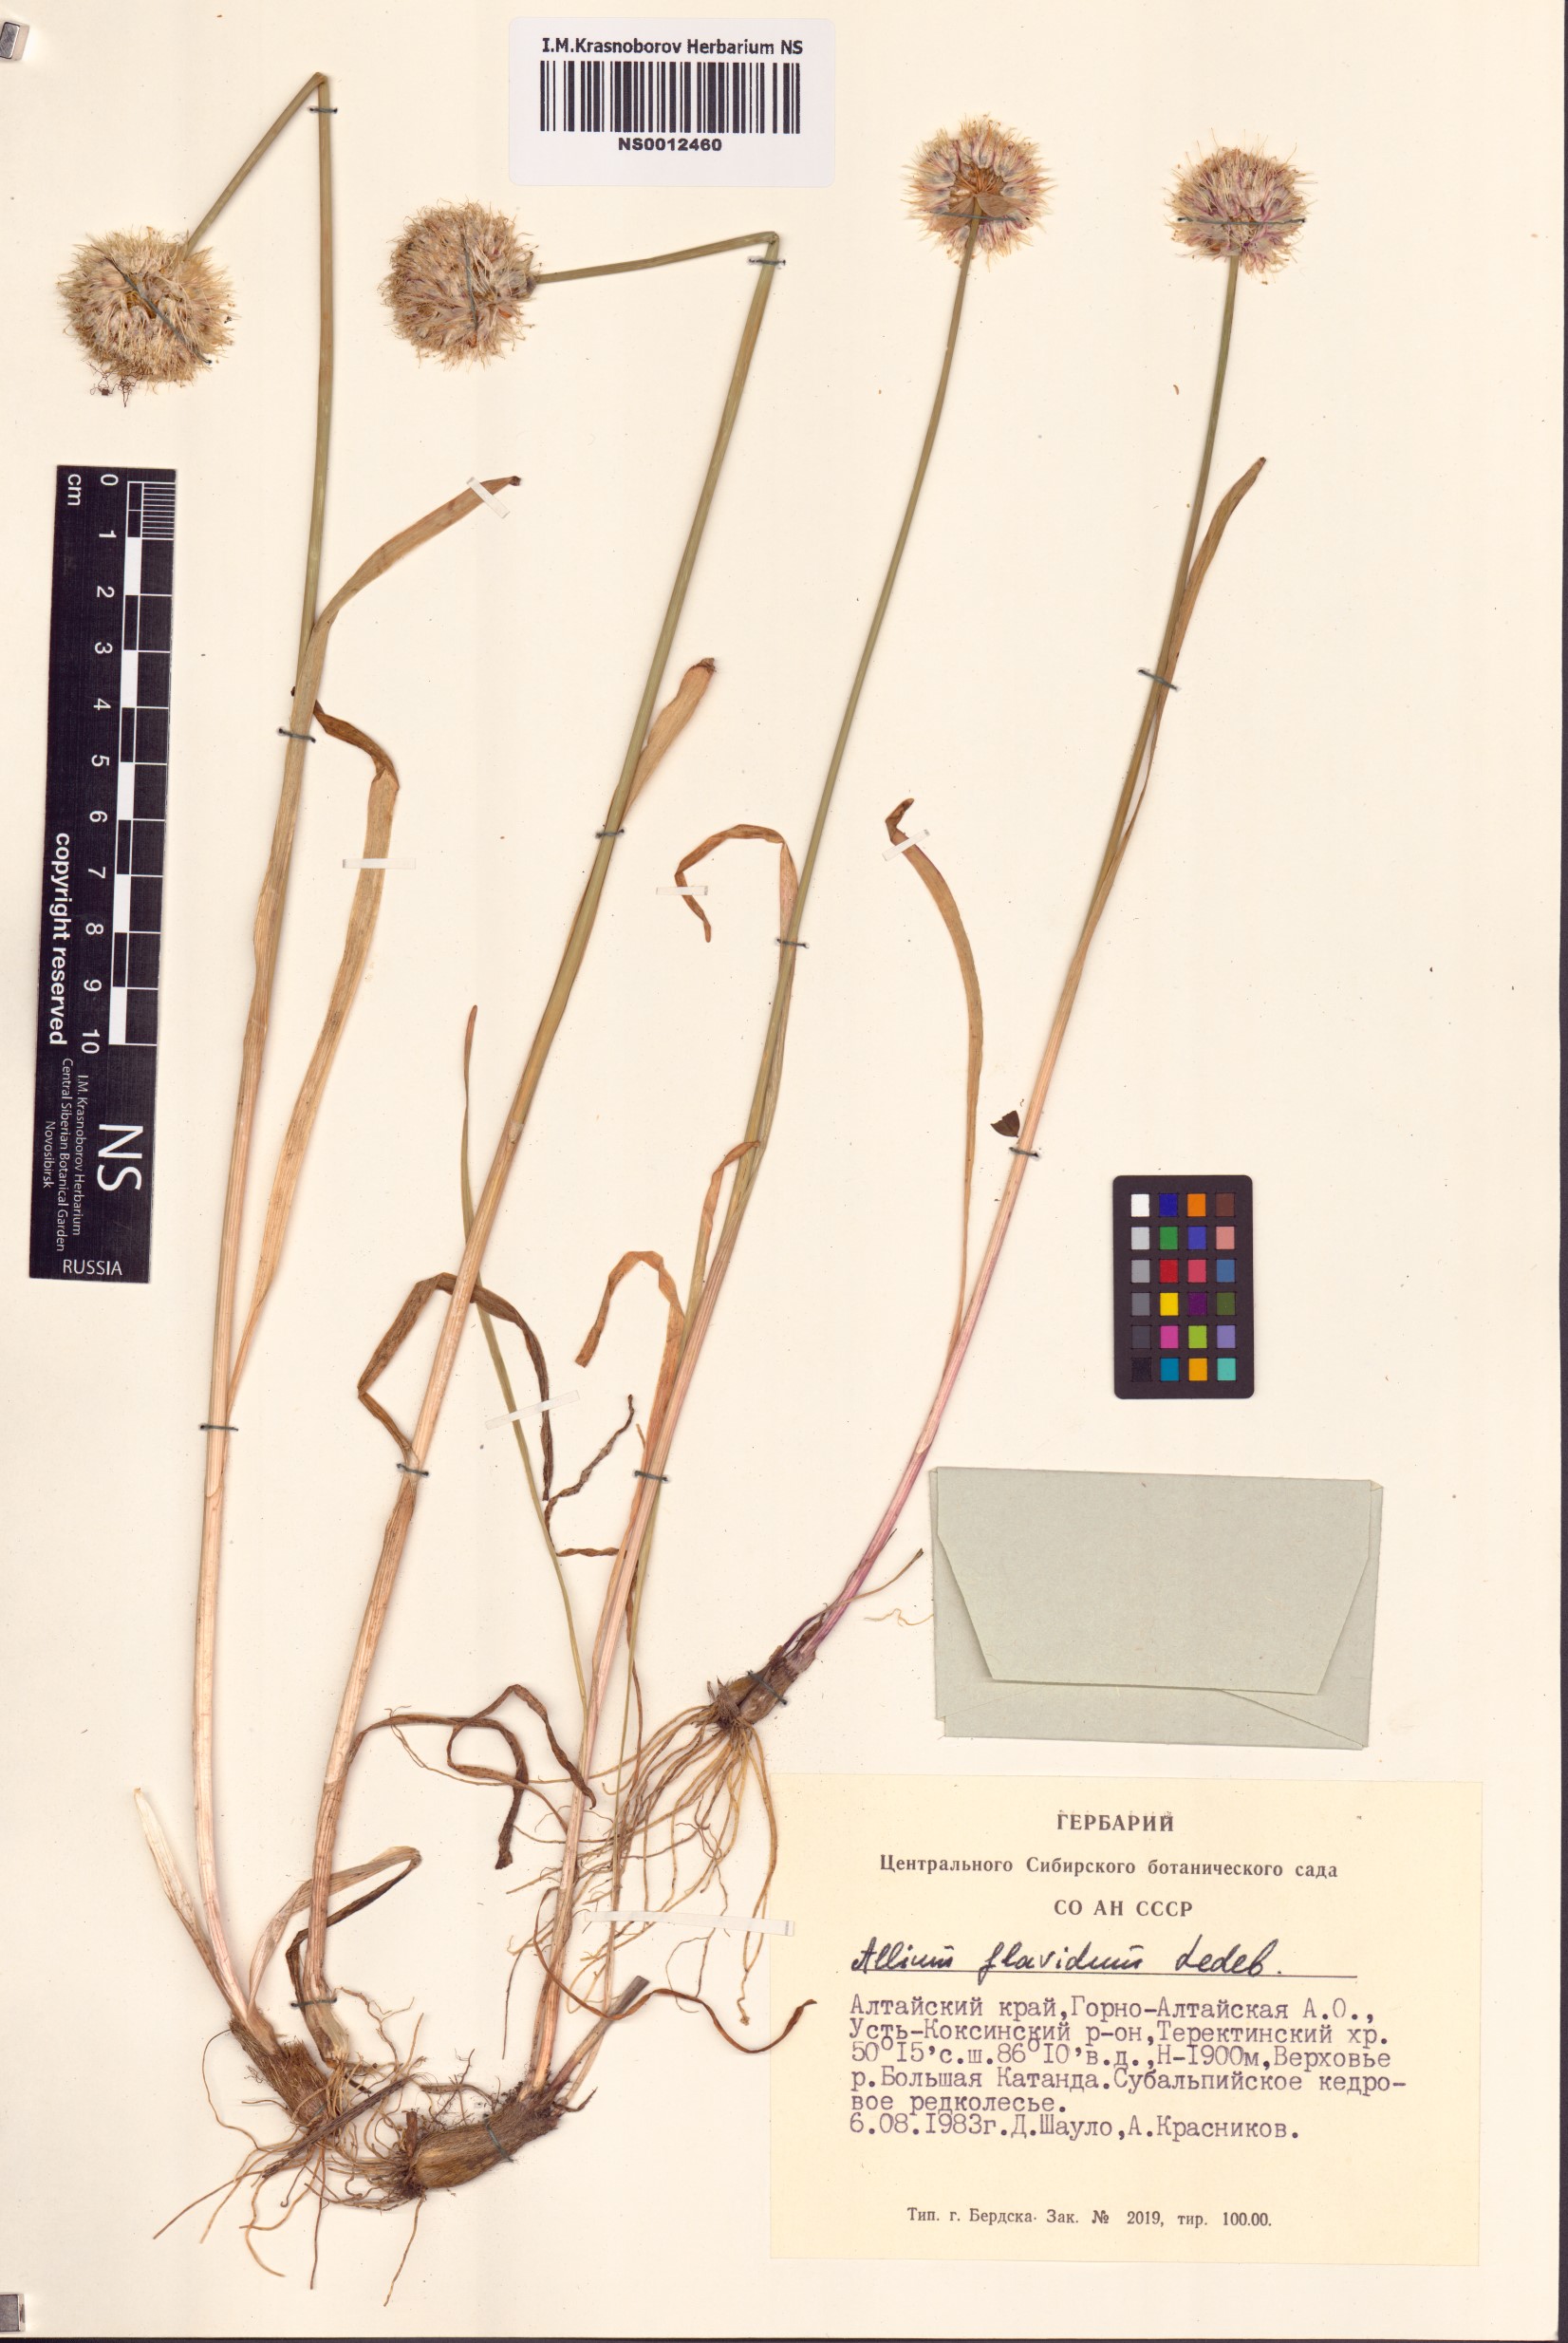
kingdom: Plantae
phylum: Tracheophyta
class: Liliopsida
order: Asparagales
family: Amaryllidaceae
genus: Allium
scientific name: Allium flavidum
